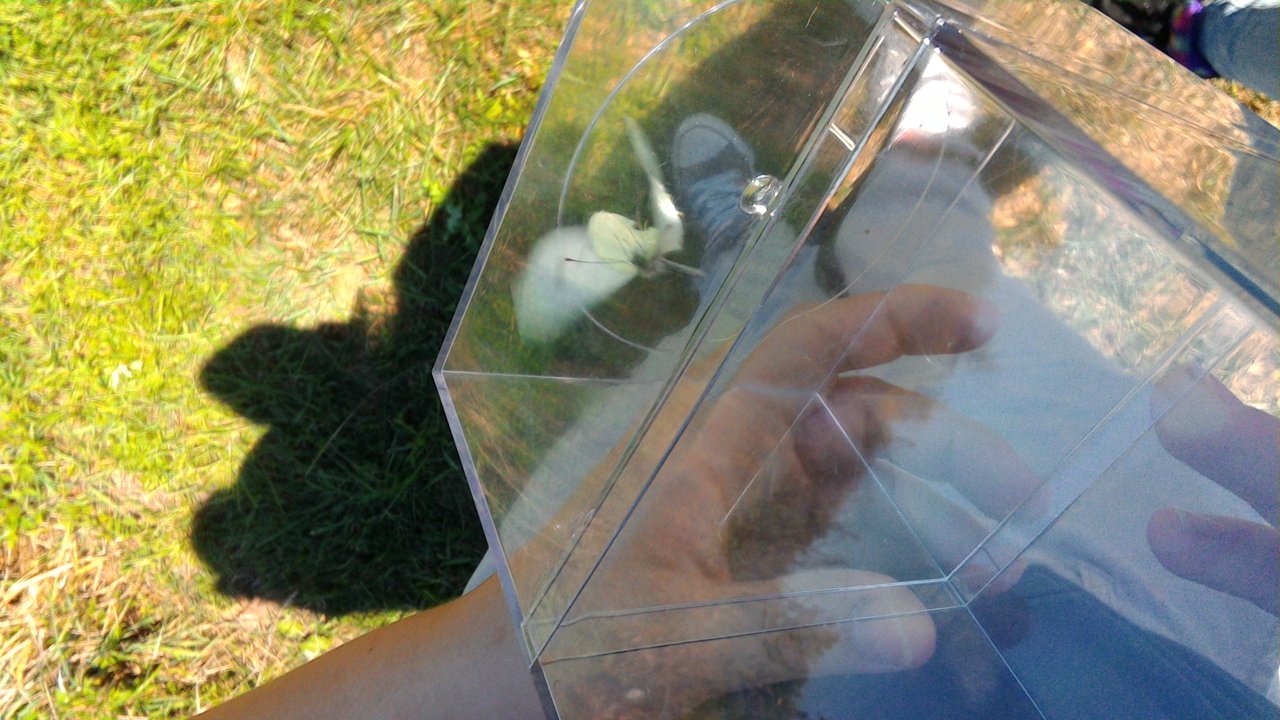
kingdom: Animalia
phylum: Arthropoda
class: Insecta
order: Lepidoptera
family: Pieridae
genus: Pieris
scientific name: Pieris rapae
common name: Cabbage White
